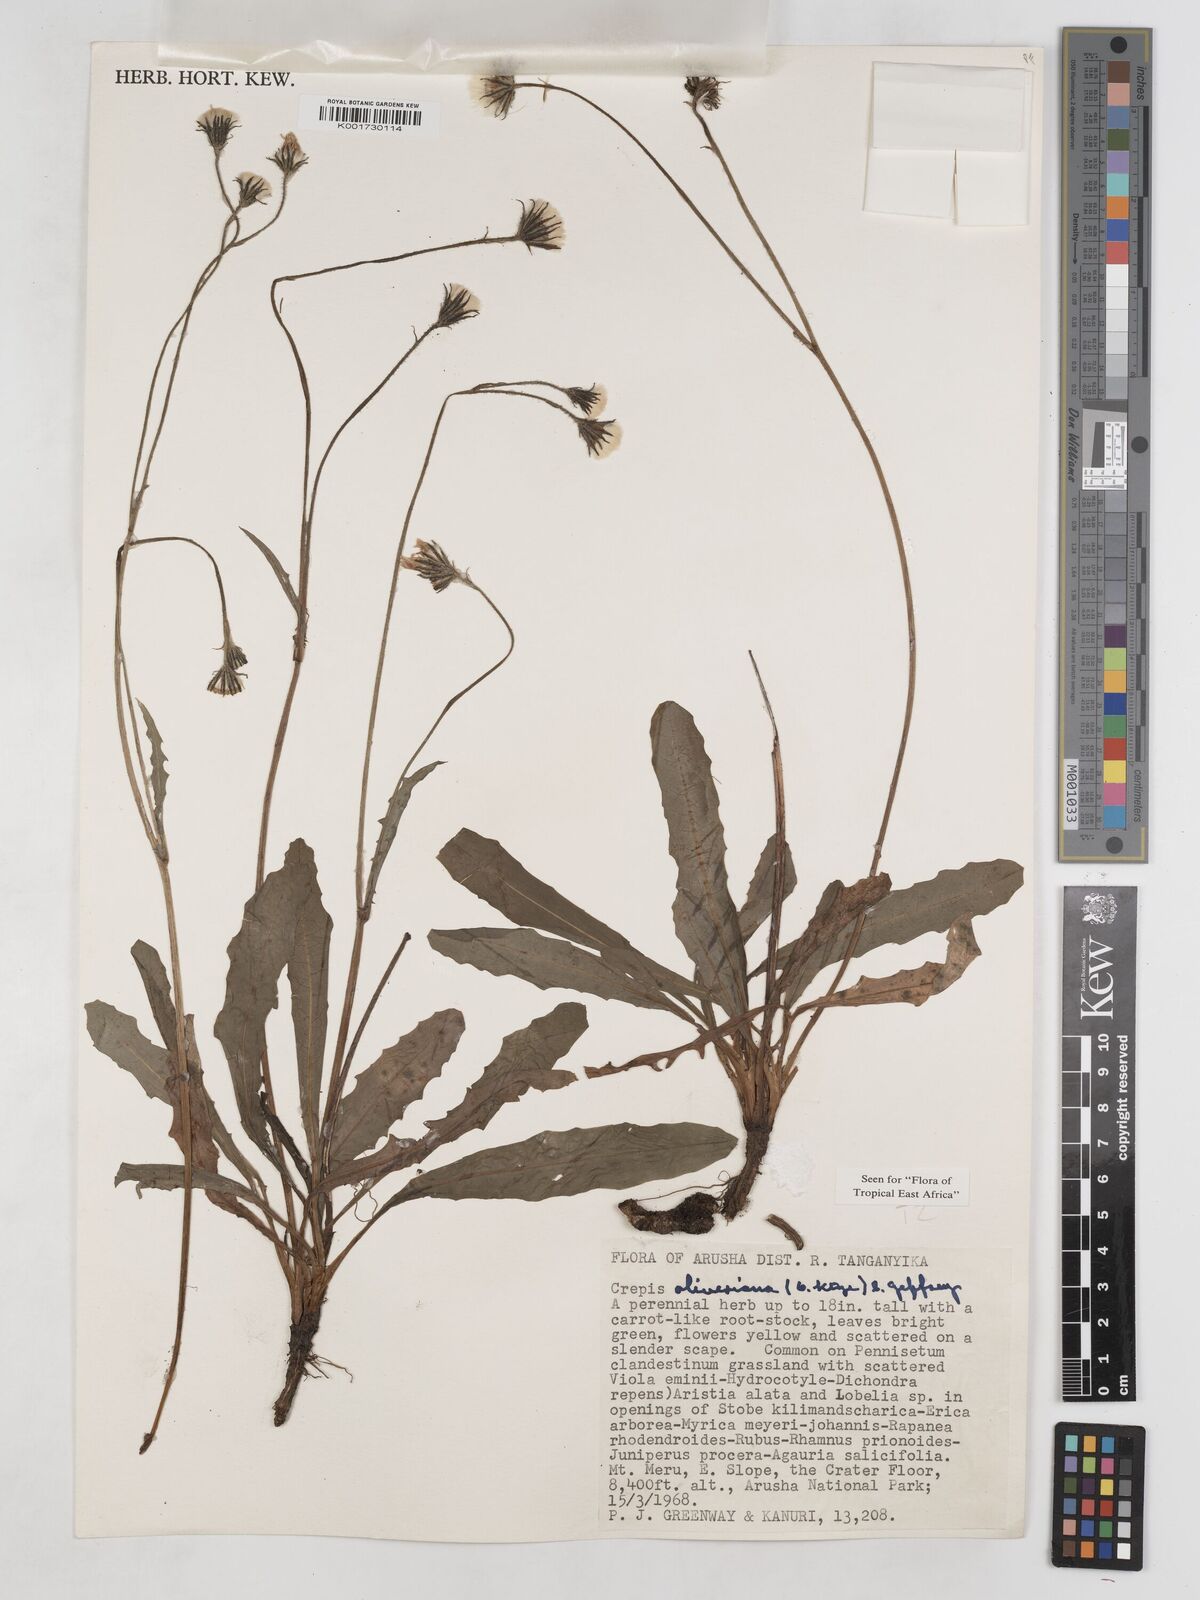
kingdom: Plantae
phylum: Tracheophyta
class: Magnoliopsida
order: Asterales
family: Asteraceae
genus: Crepis
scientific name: Crepis hypochoeridea
